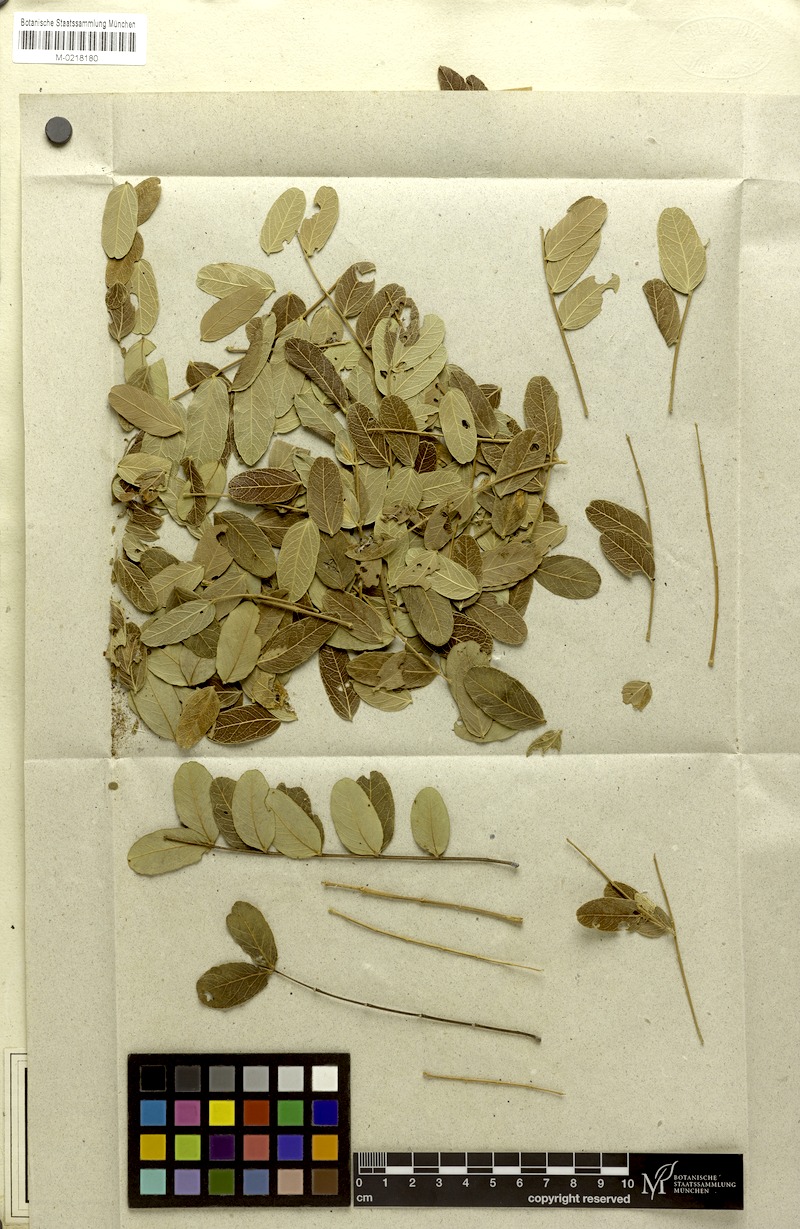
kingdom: Plantae
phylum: Tracheophyta
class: Magnoliopsida
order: Fabales
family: Fabaceae
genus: Enterolobium
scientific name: Enterolobium gummiferum
